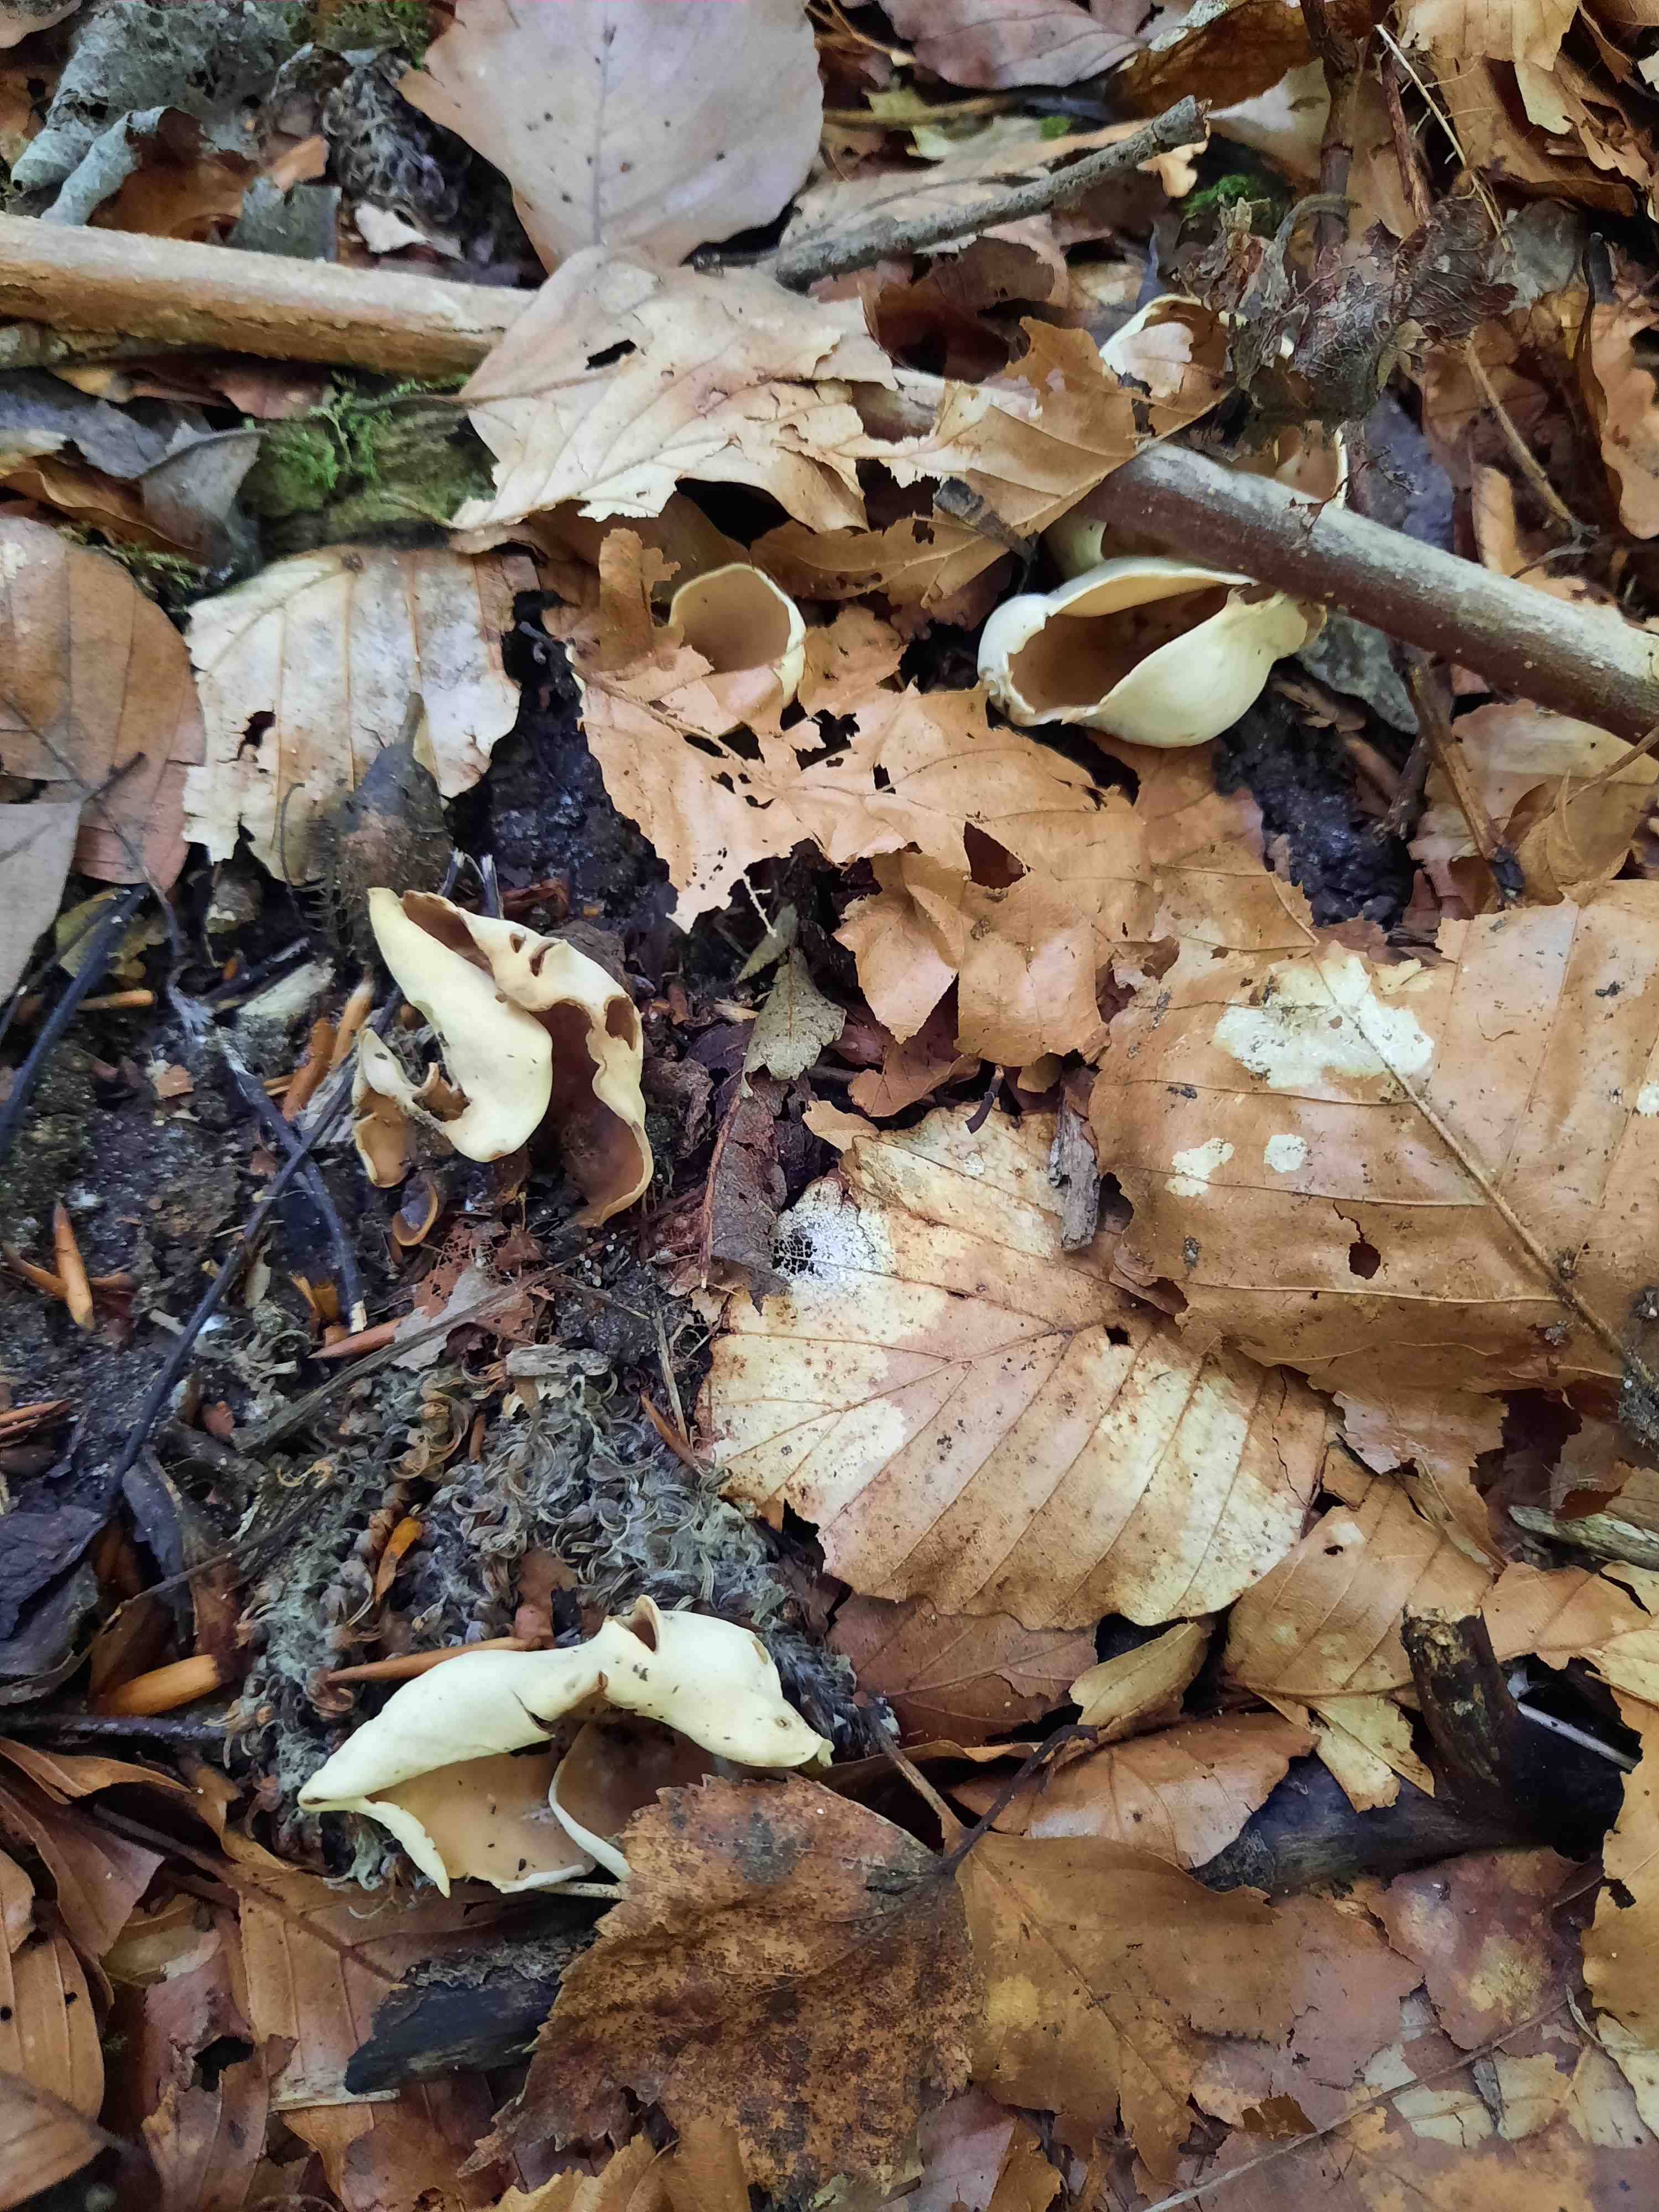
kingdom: Fungi
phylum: Ascomycota
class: Pezizomycetes
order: Pezizales
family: Otideaceae
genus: Otidea
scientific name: Otidea alutacea
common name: læder-ørebæger
